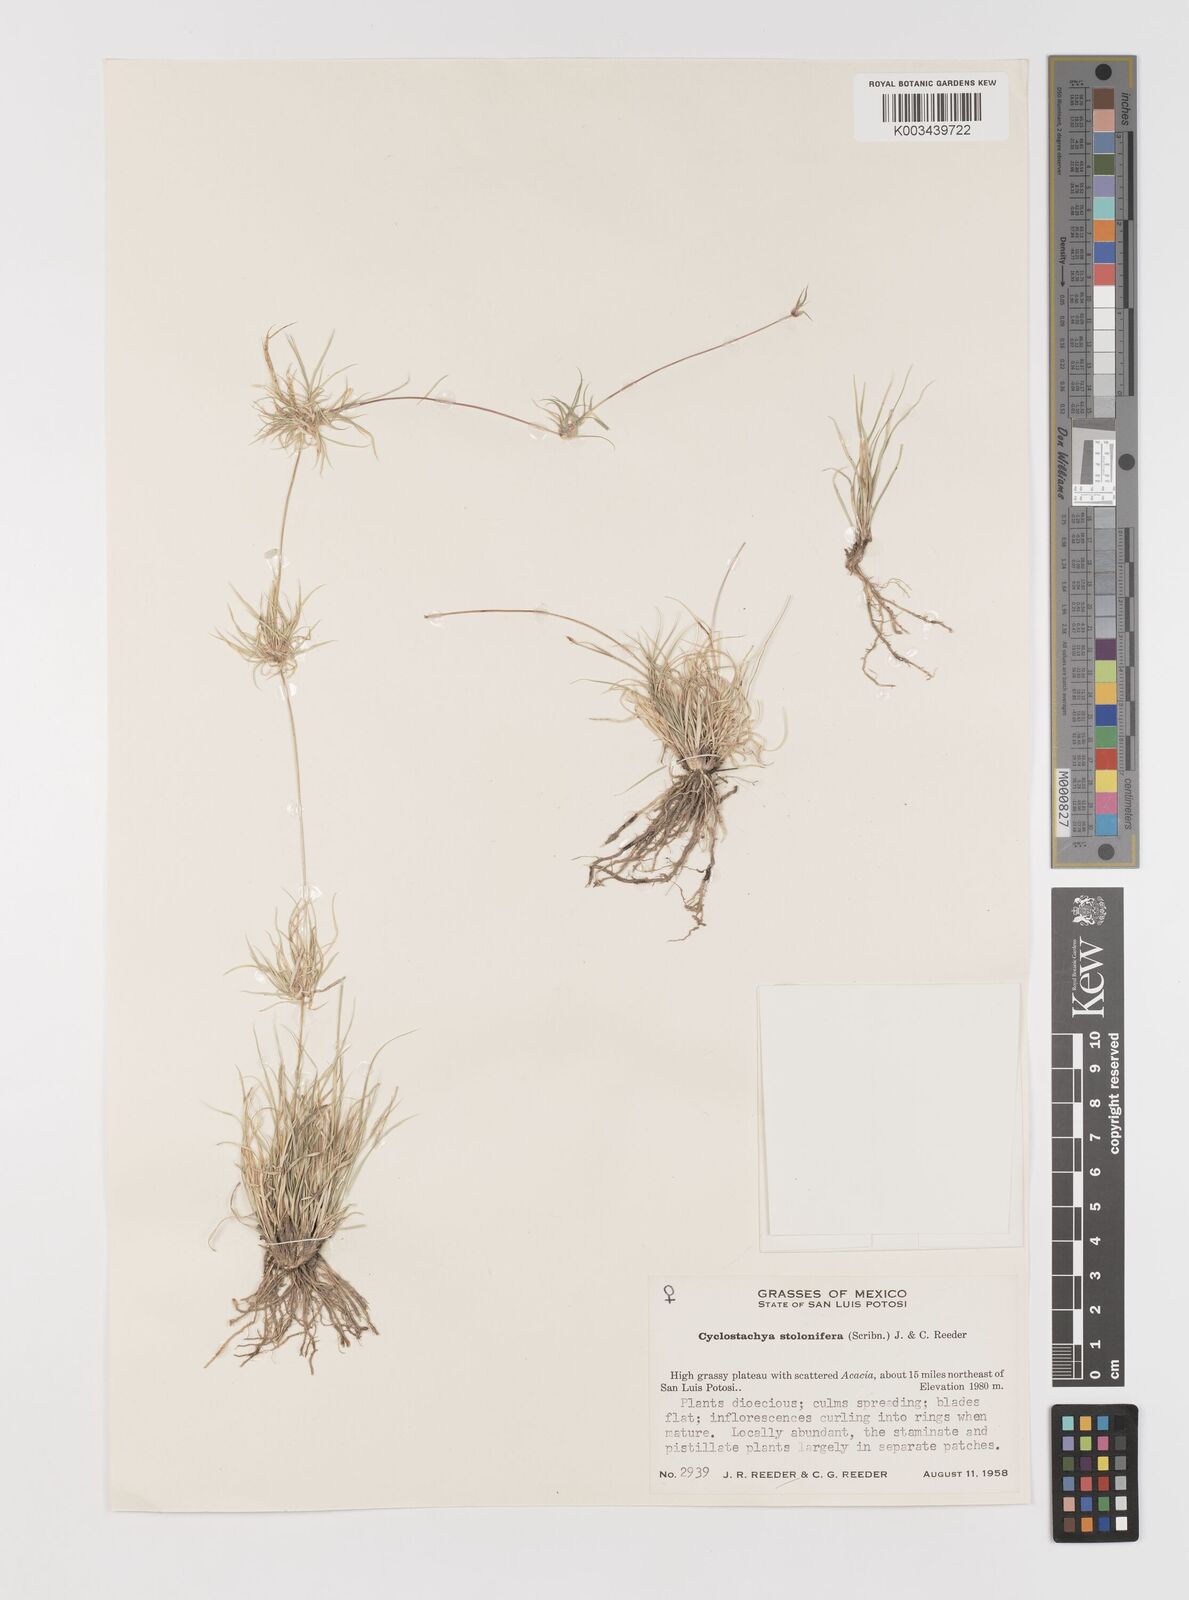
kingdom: Plantae
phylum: Tracheophyta
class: Liliopsida
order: Poales
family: Poaceae
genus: Bouteloua
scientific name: Bouteloua stolonifera
